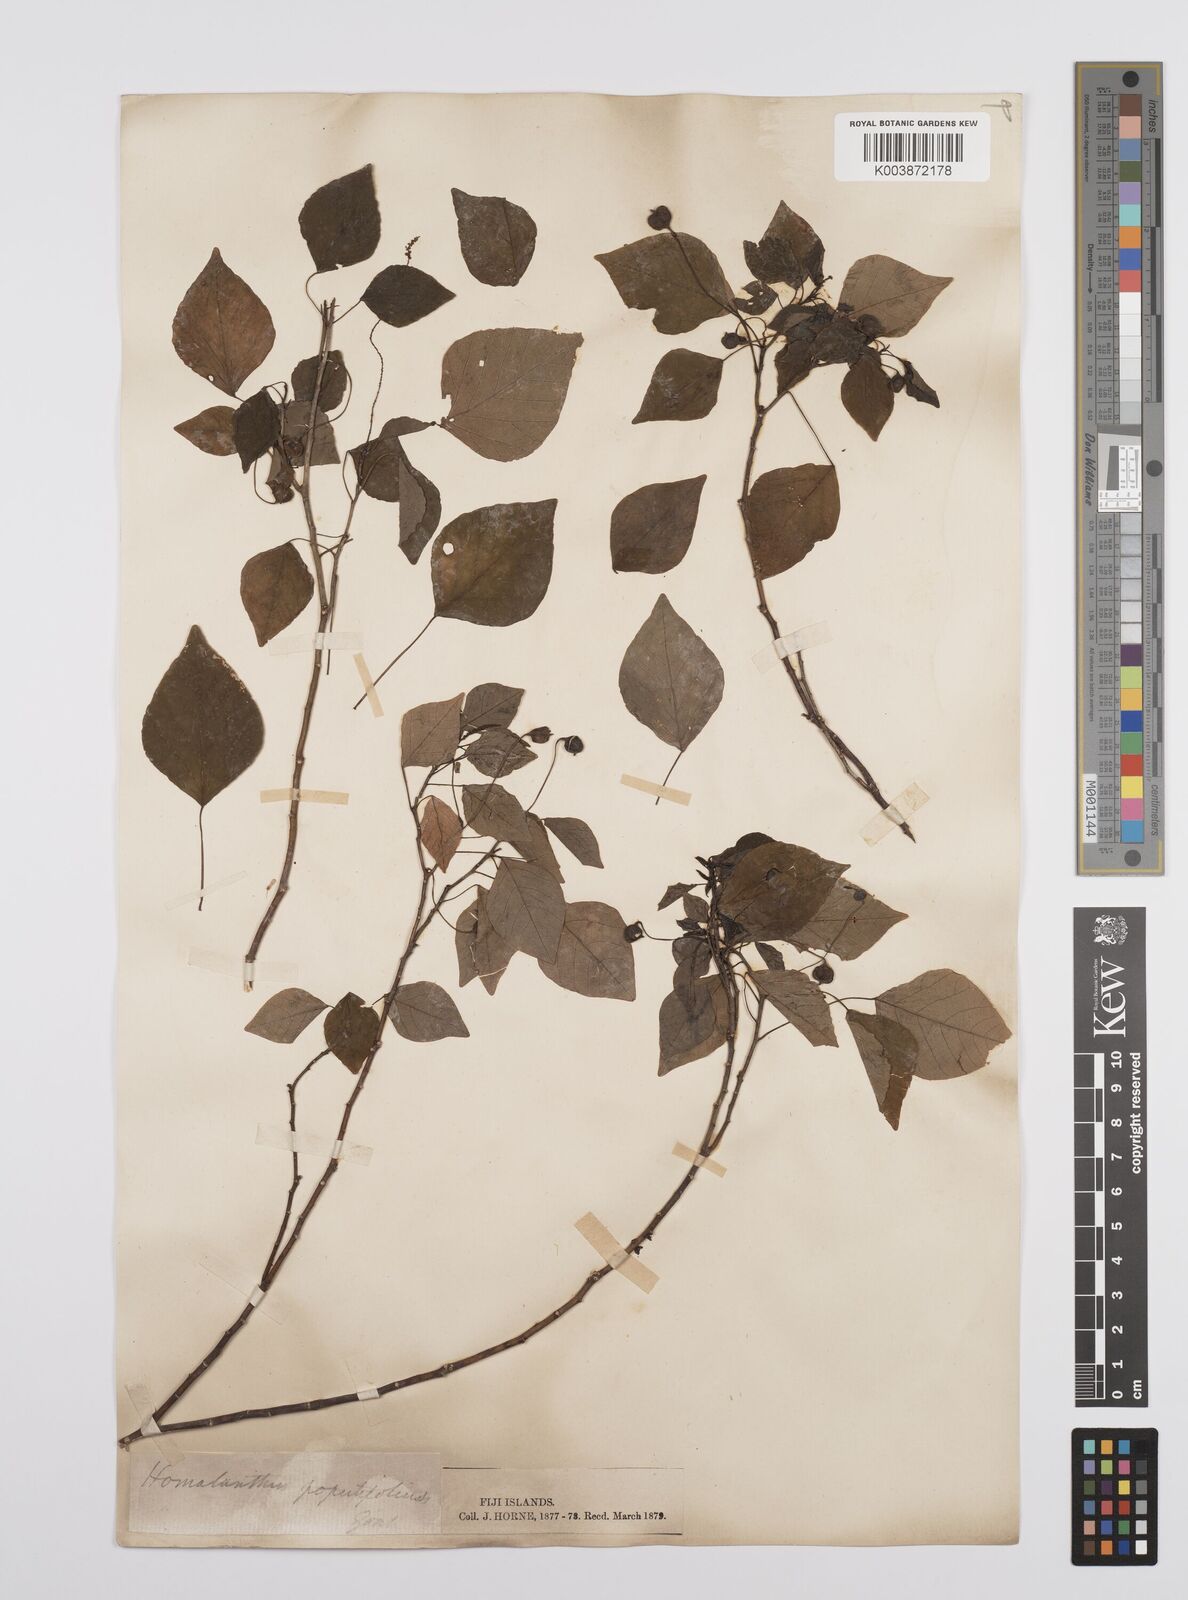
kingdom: Plantae
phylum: Tracheophyta
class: Magnoliopsida
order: Malpighiales
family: Euphorbiaceae
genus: Homalanthus
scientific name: Homalanthus nutans
